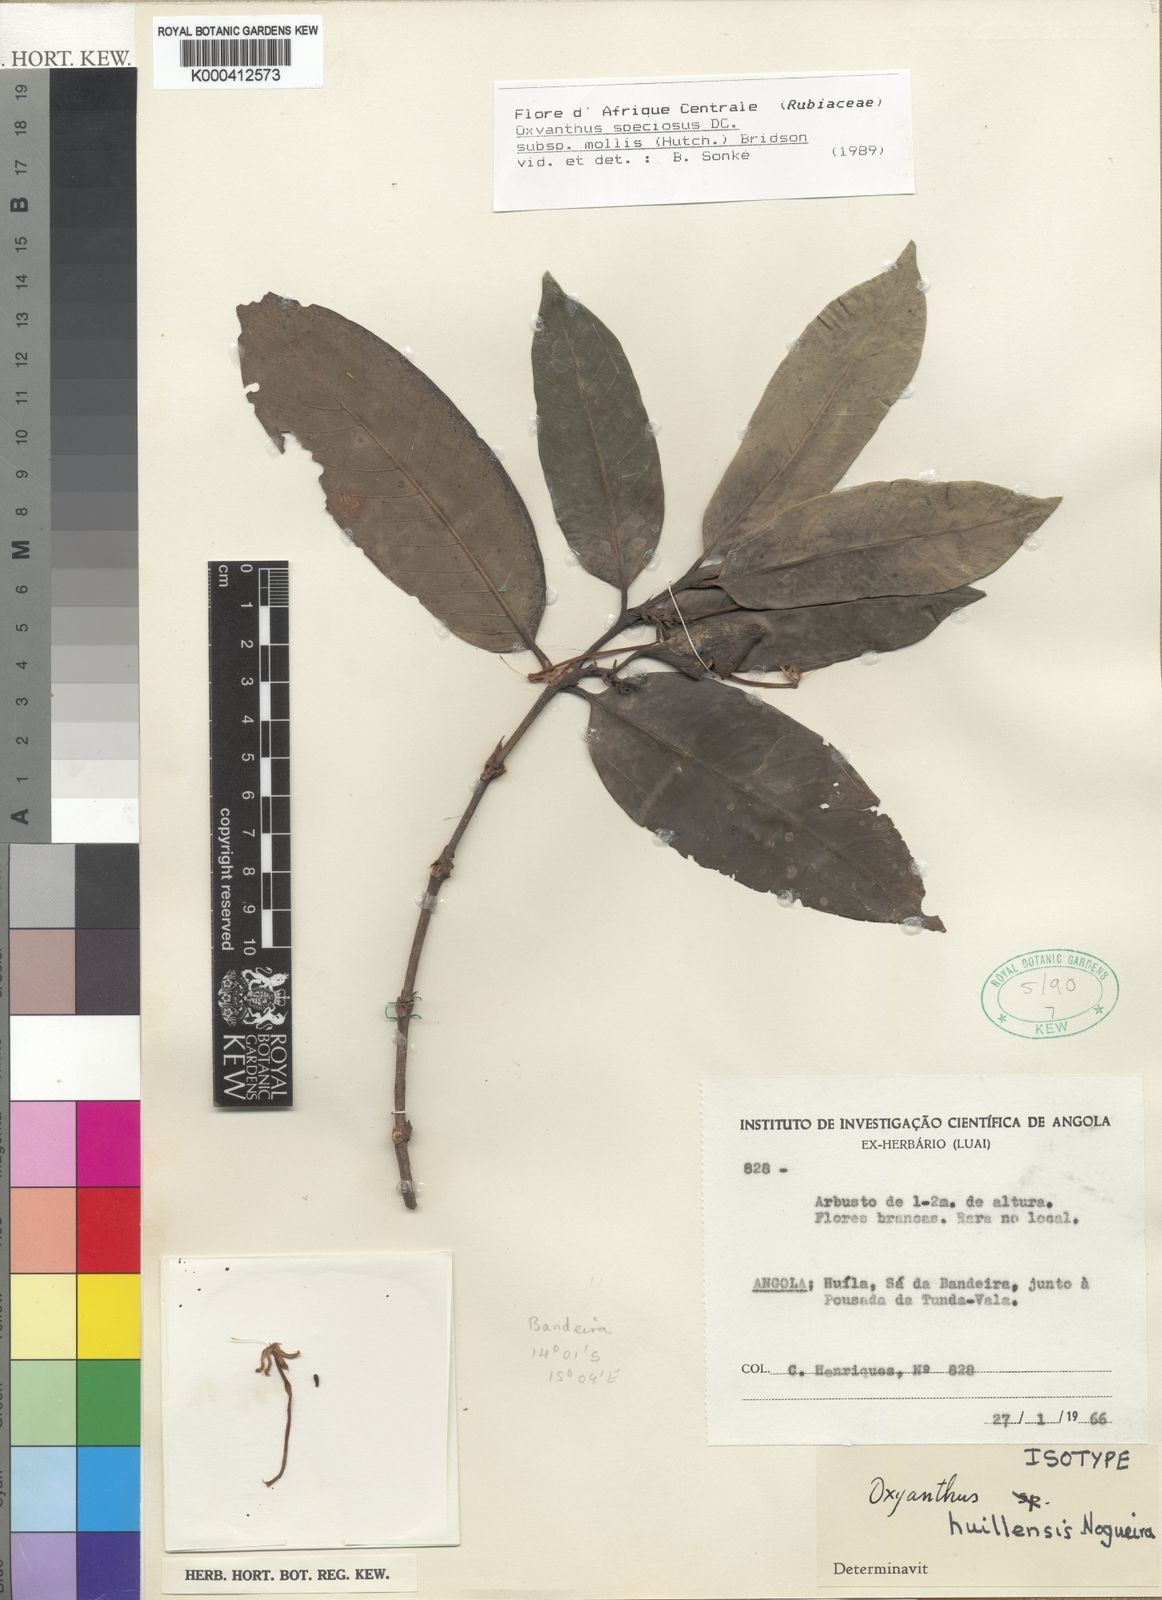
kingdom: Plantae
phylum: Tracheophyta
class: Magnoliopsida
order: Gentianales
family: Rubiaceae
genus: Oxyanthus
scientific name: Oxyanthus speciosus
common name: Whipstick loquat
